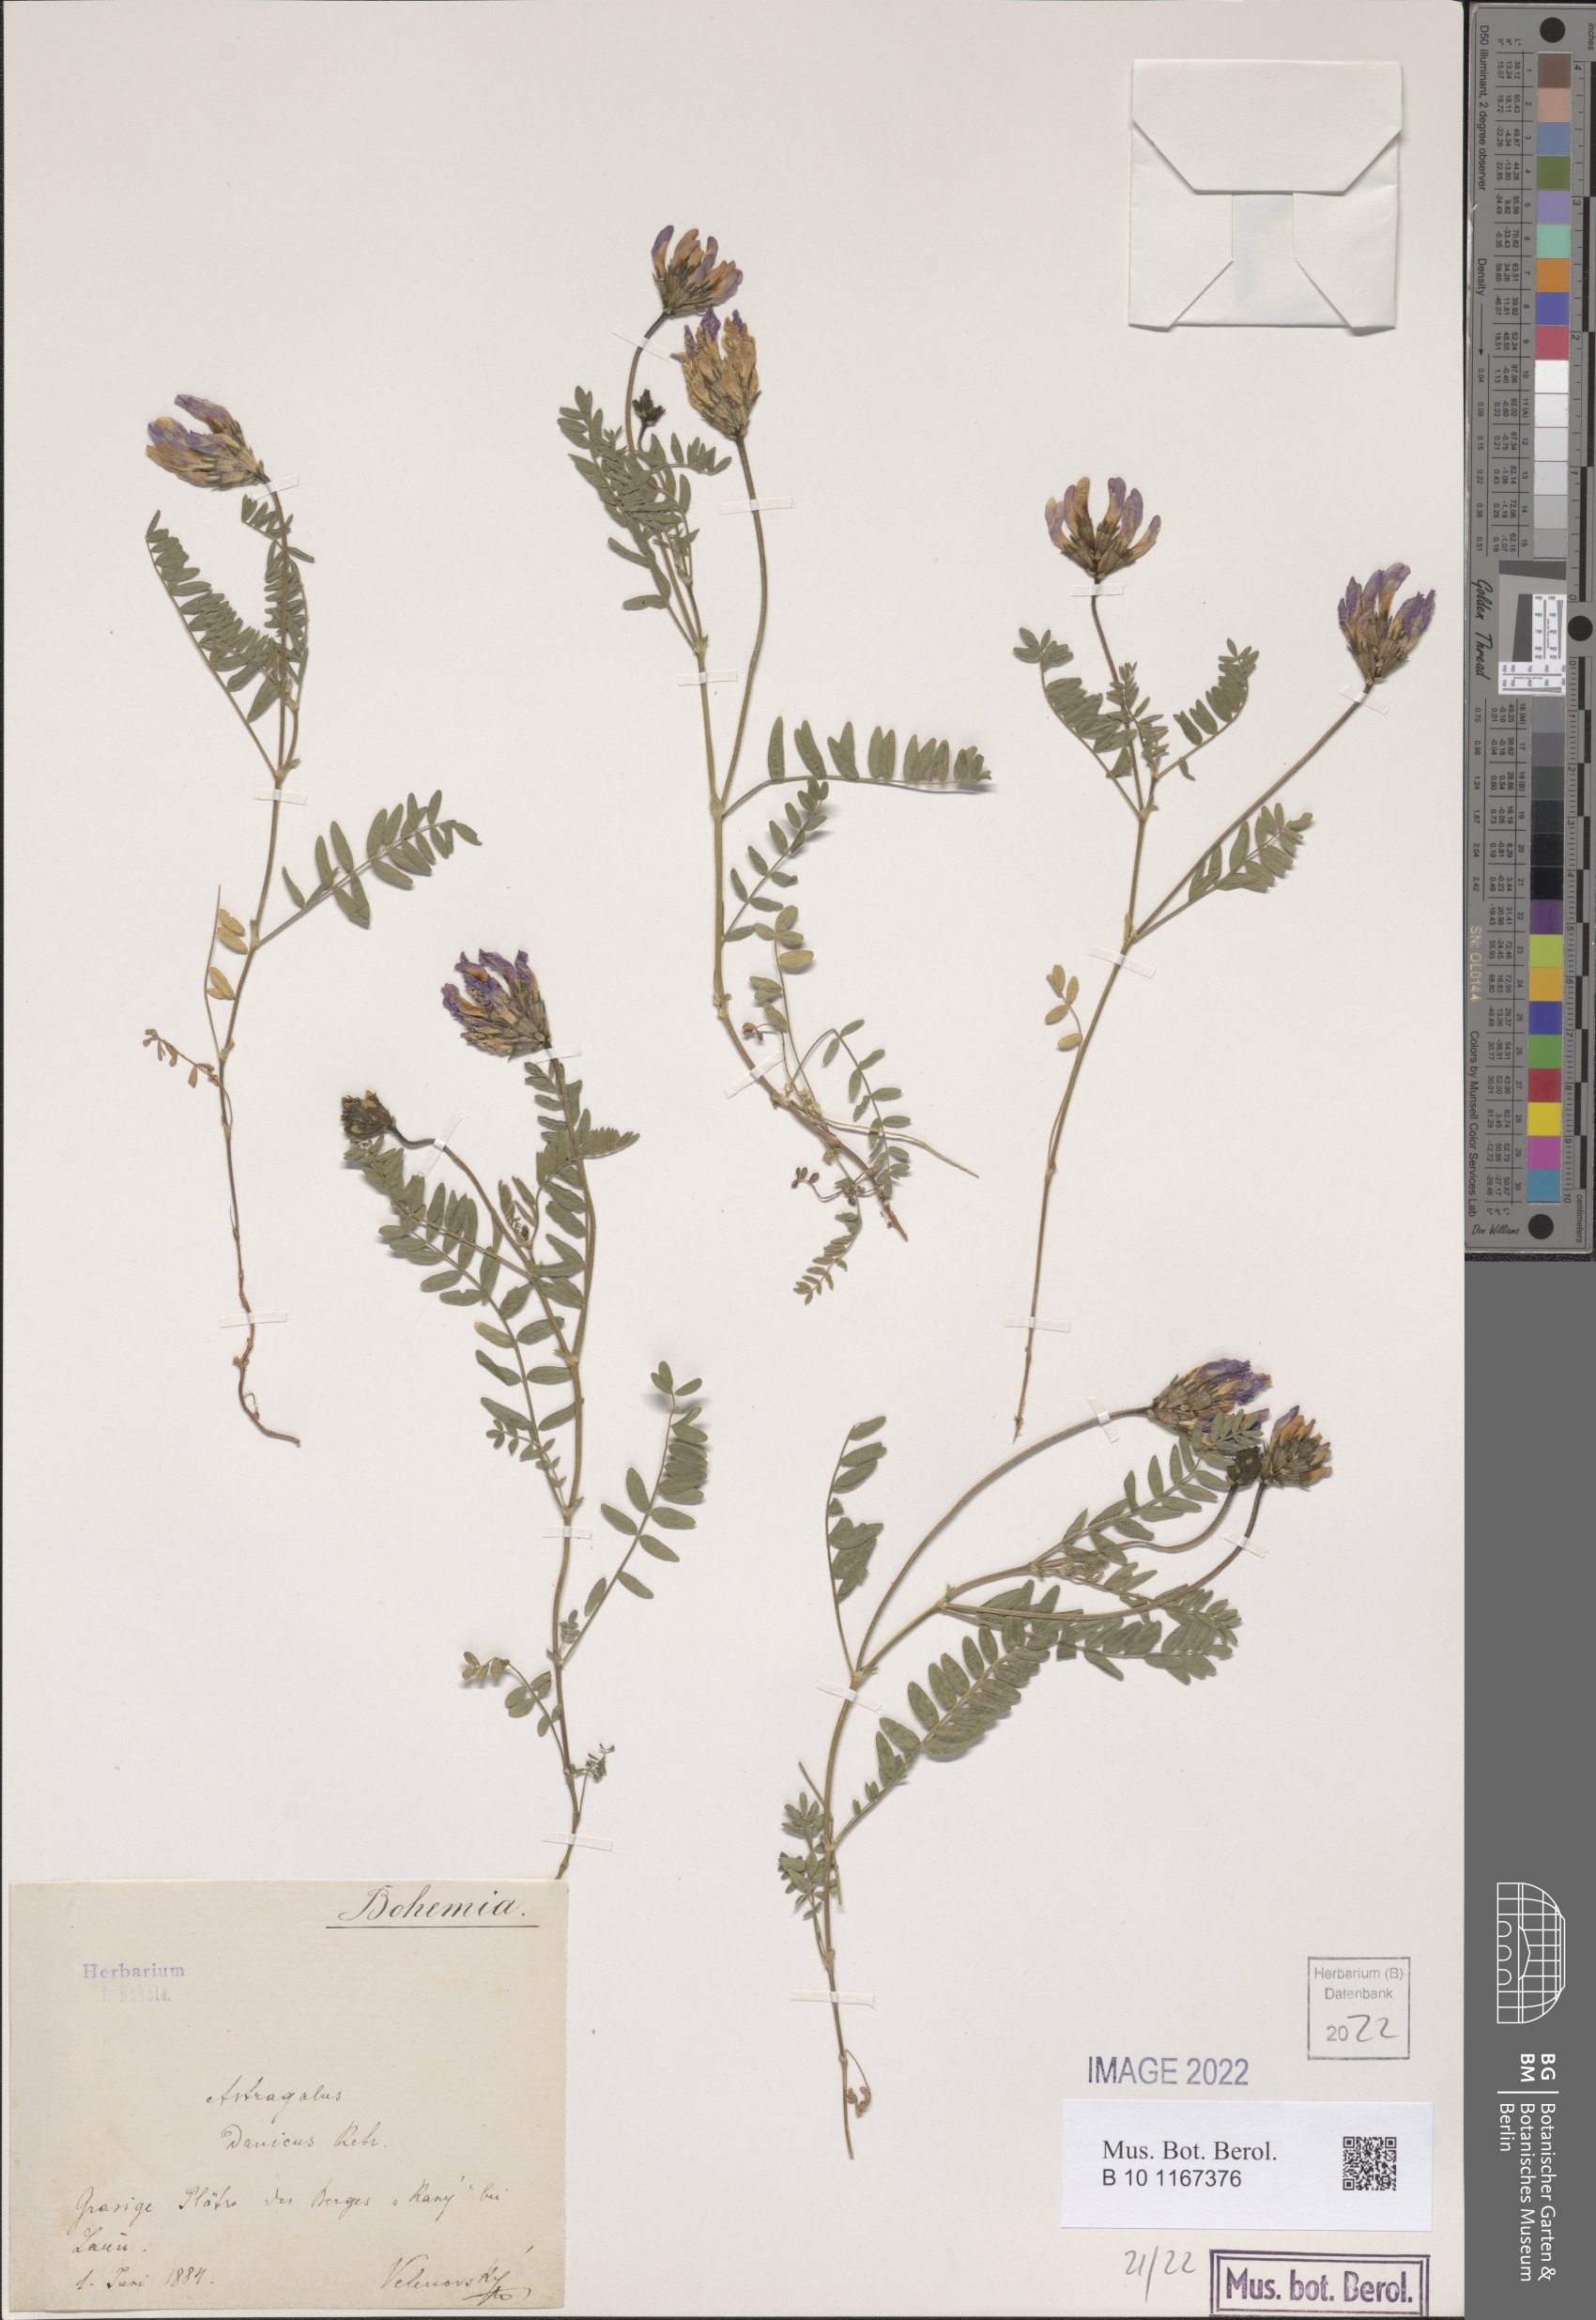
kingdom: Plantae
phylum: Tracheophyta
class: Magnoliopsida
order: Fabales
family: Fabaceae
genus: Astragalus
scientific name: Astragalus danicus
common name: Purple milk-vetch
